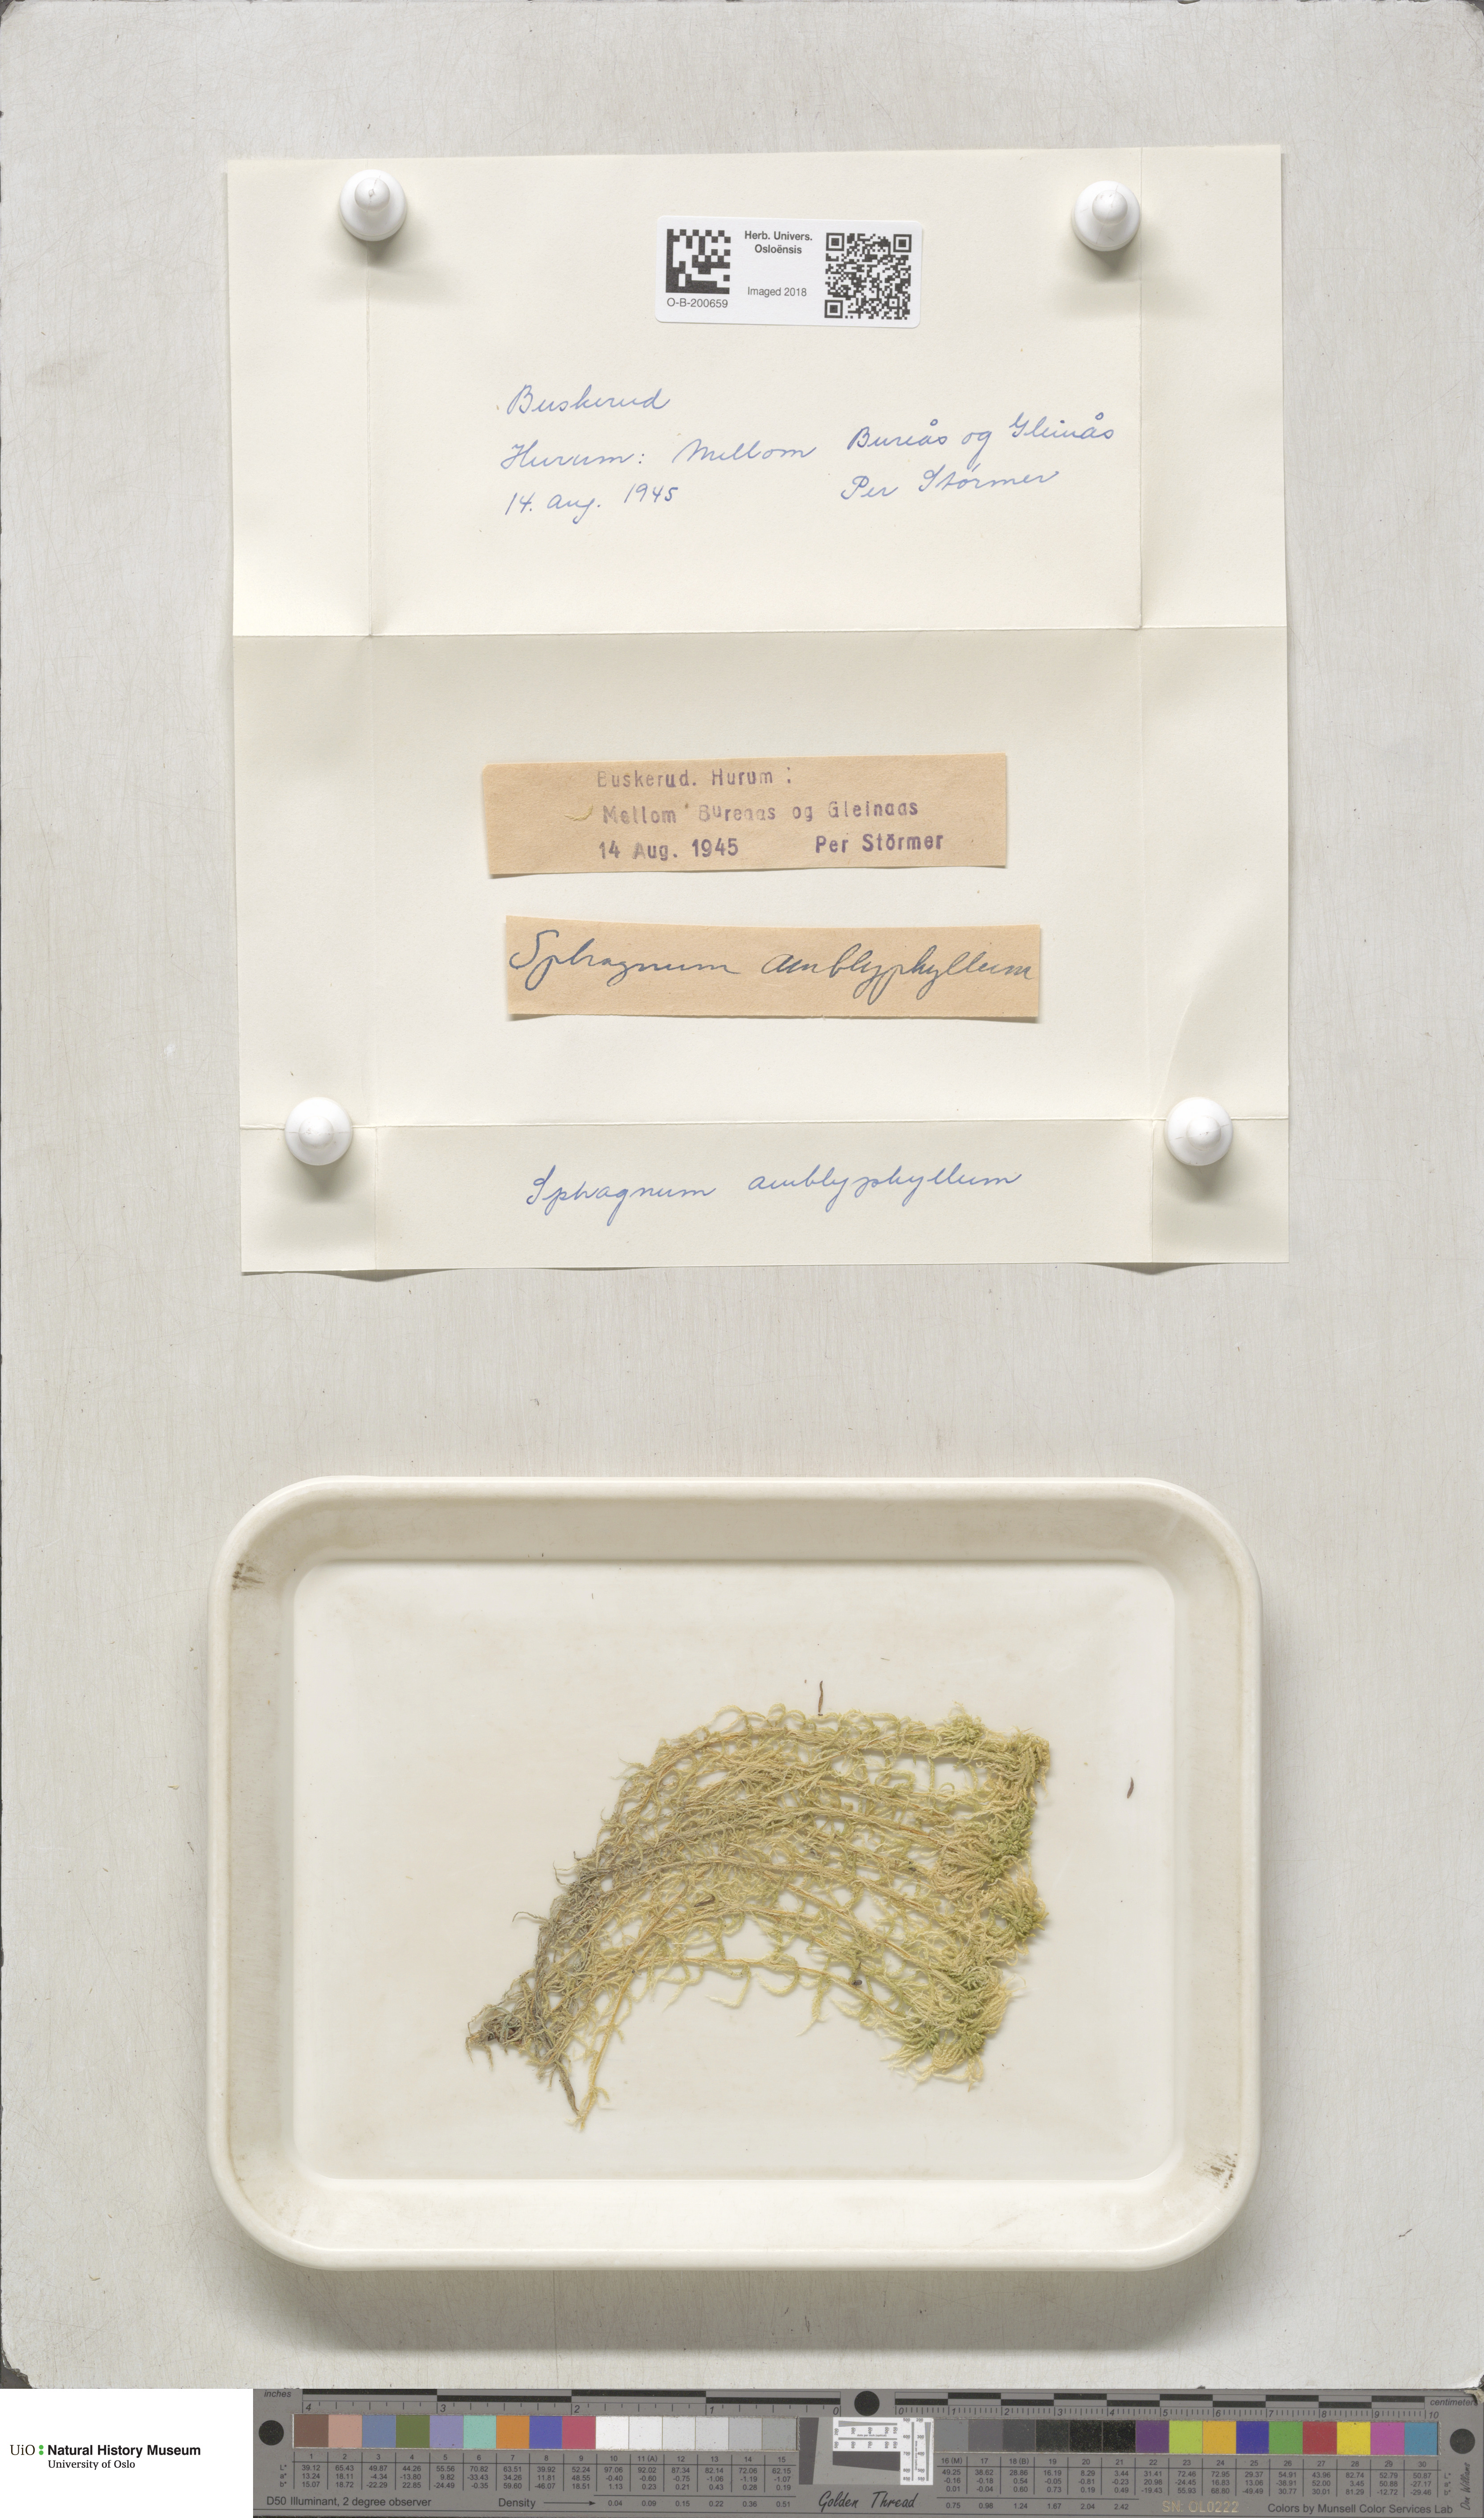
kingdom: Plantae
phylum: Bryophyta
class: Sphagnopsida
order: Sphagnales
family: Sphagnaceae
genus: Sphagnum
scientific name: Sphagnum flexuosum
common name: Flexible peat moss
